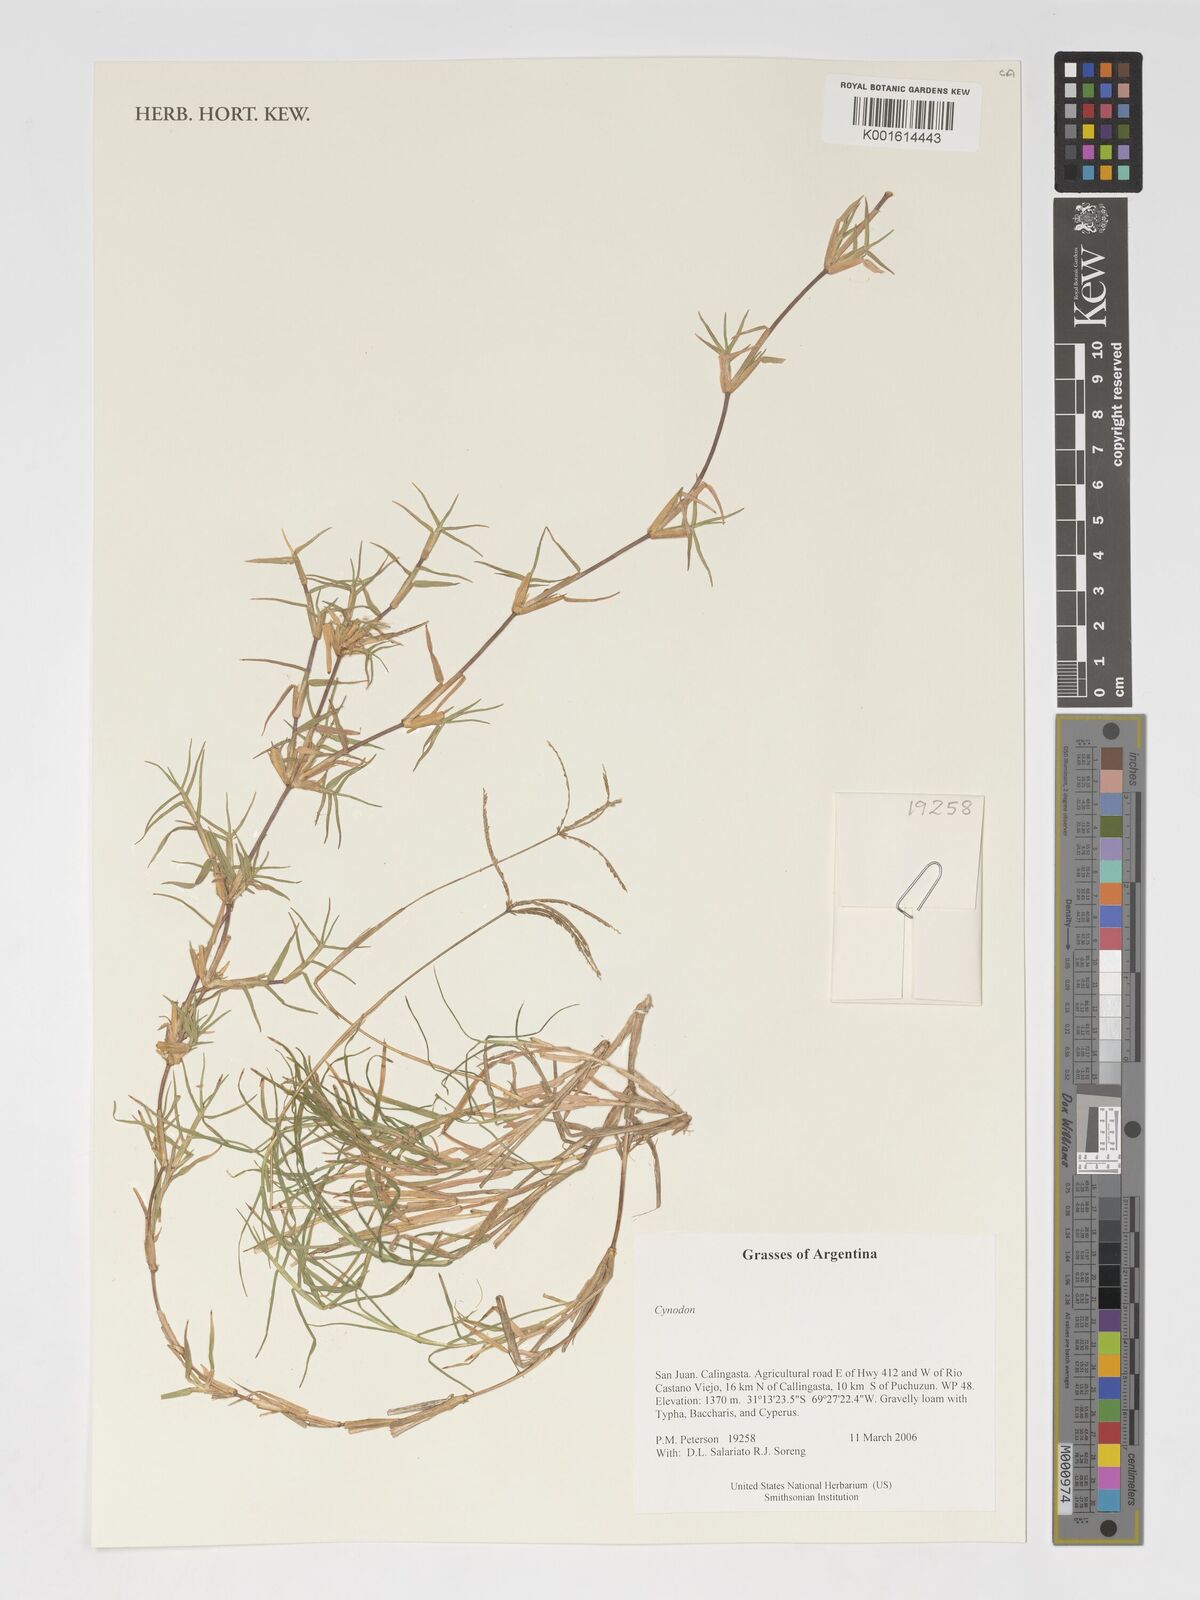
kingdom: Plantae
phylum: Tracheophyta
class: Liliopsida
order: Poales
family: Poaceae
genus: Cynodon
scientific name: Cynodon
